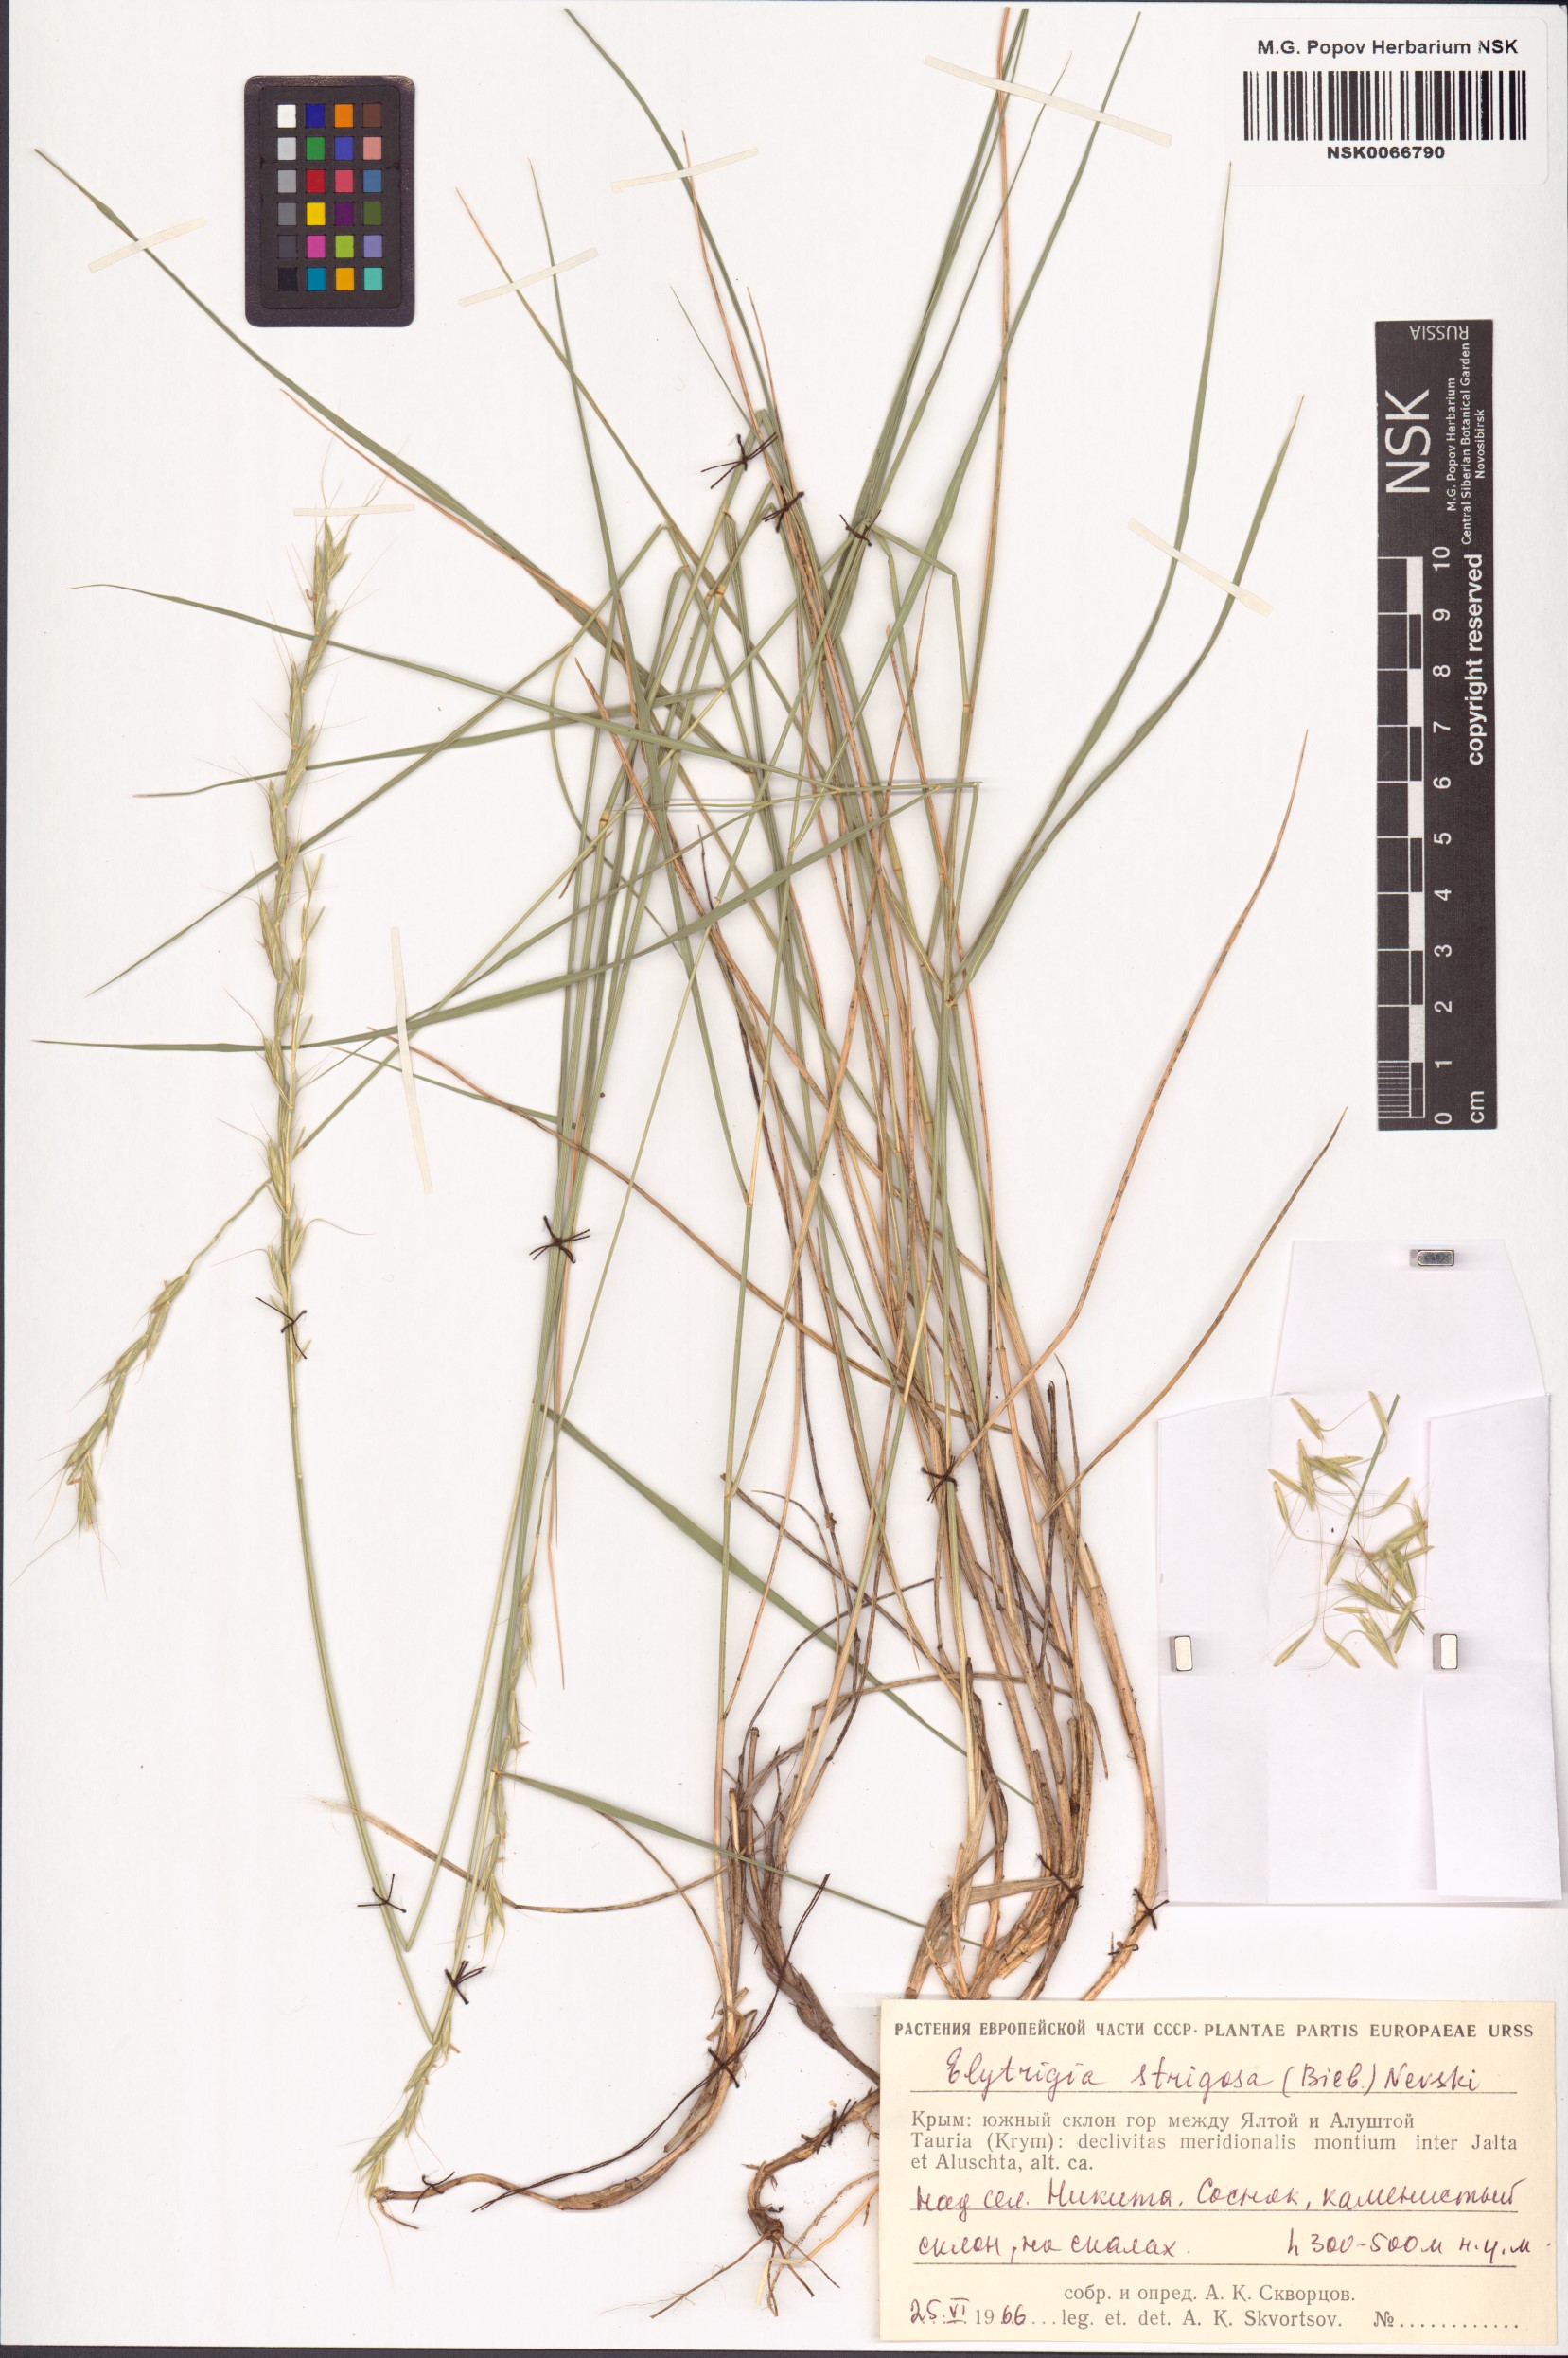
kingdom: Plantae
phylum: Tracheophyta
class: Liliopsida
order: Poales
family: Poaceae
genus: Pseudoroegneria
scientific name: Pseudoroegneria strigosa
